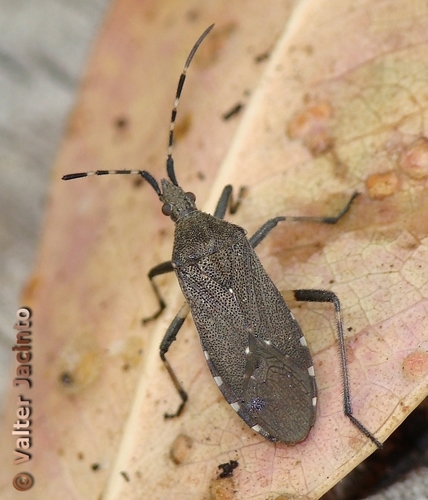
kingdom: Animalia
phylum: Arthropoda
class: Insecta
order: Hemiptera
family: Stenocephalidae
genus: Dicranocephalus
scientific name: Dicranocephalus agilis
